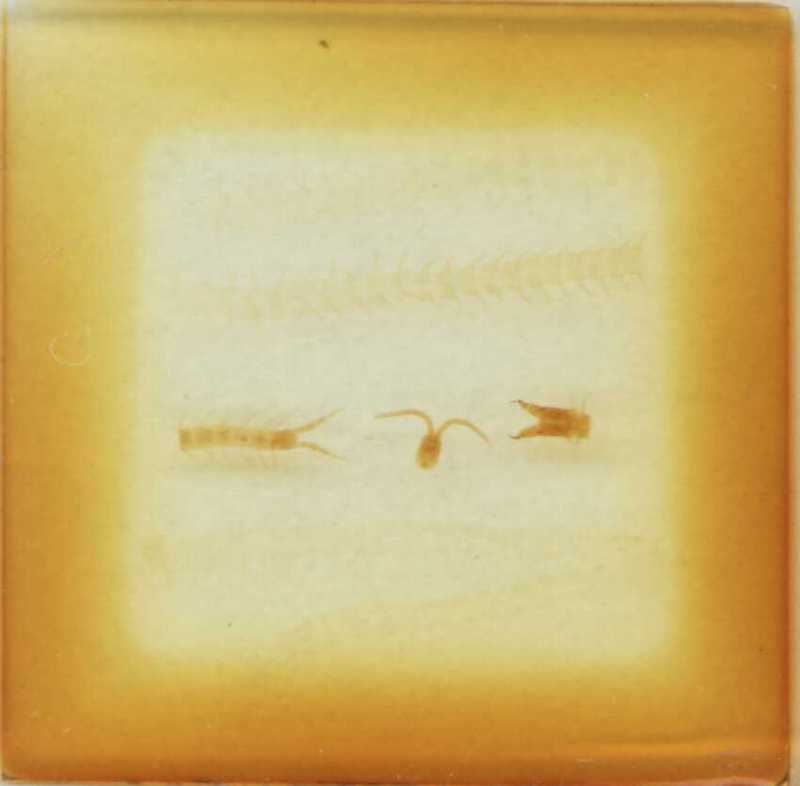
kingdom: Animalia
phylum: Arthropoda
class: Chilopoda
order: Geophilomorpha
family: Geophilidae
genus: Dekanphilus
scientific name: Dekanphilus gracillimus
